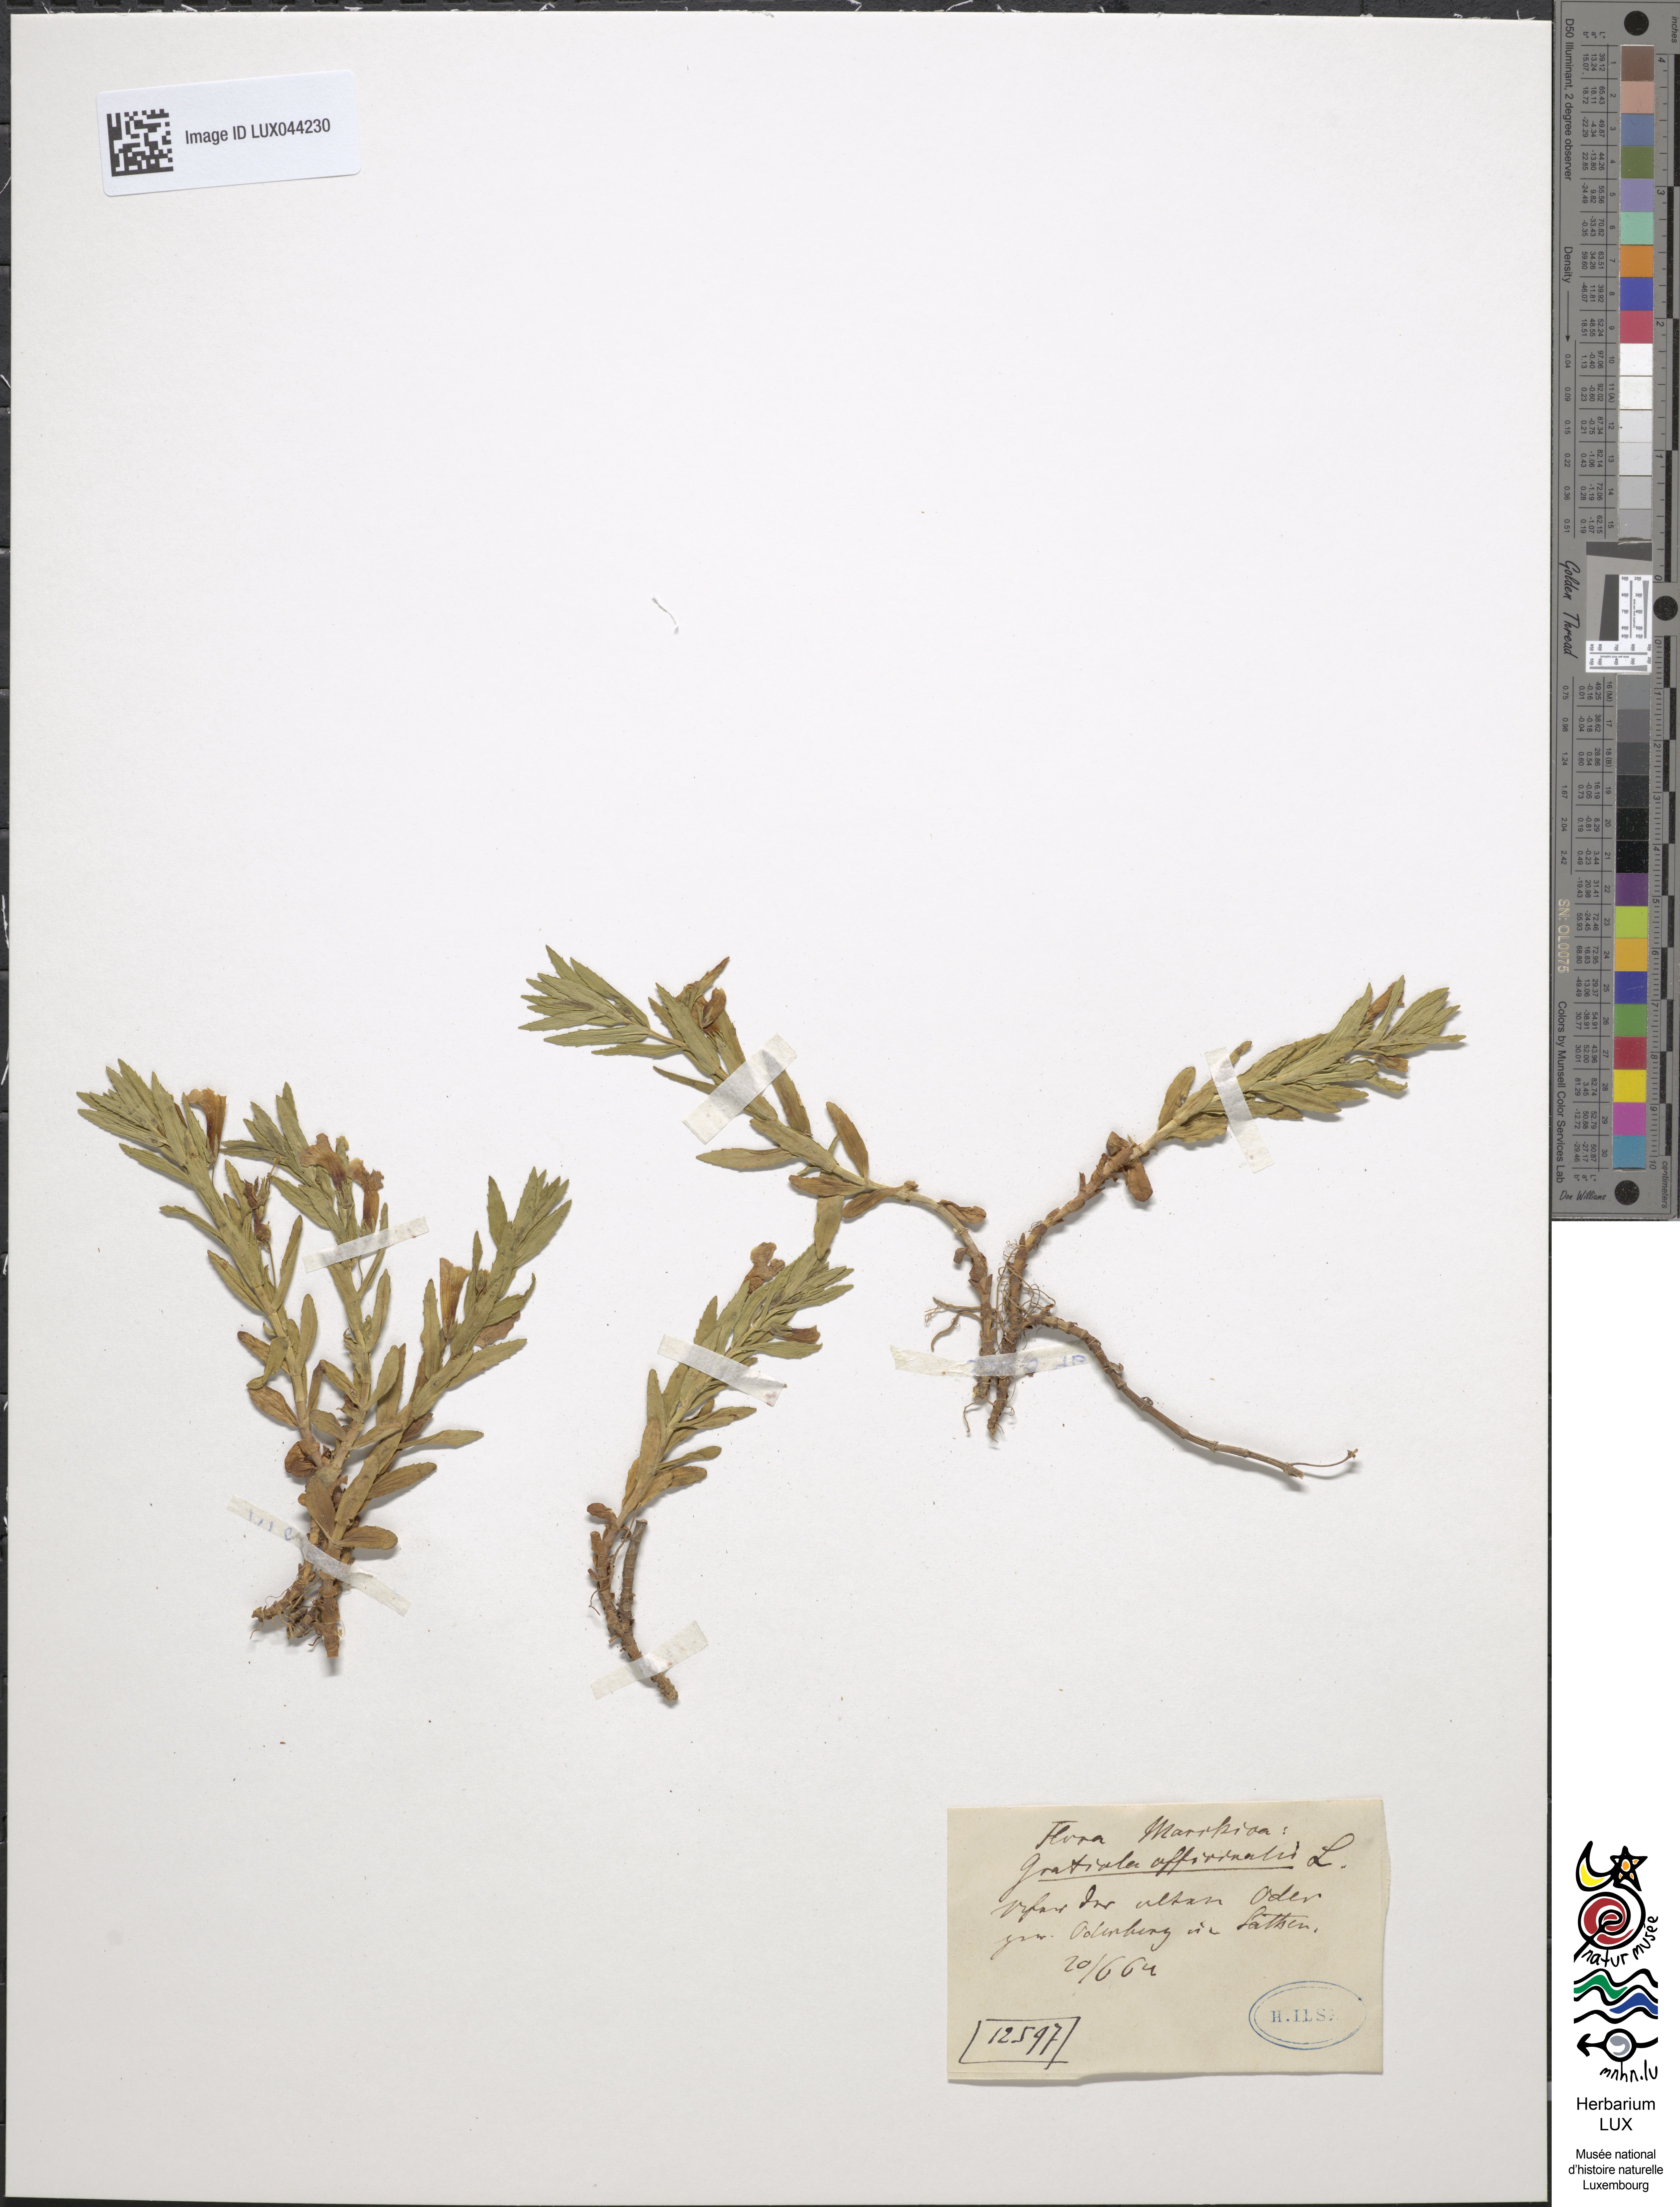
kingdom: Plantae
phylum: Tracheophyta
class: Magnoliopsida
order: Lamiales
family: Plantaginaceae
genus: Gratiola
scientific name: Gratiola officinalis
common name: Gratiola
